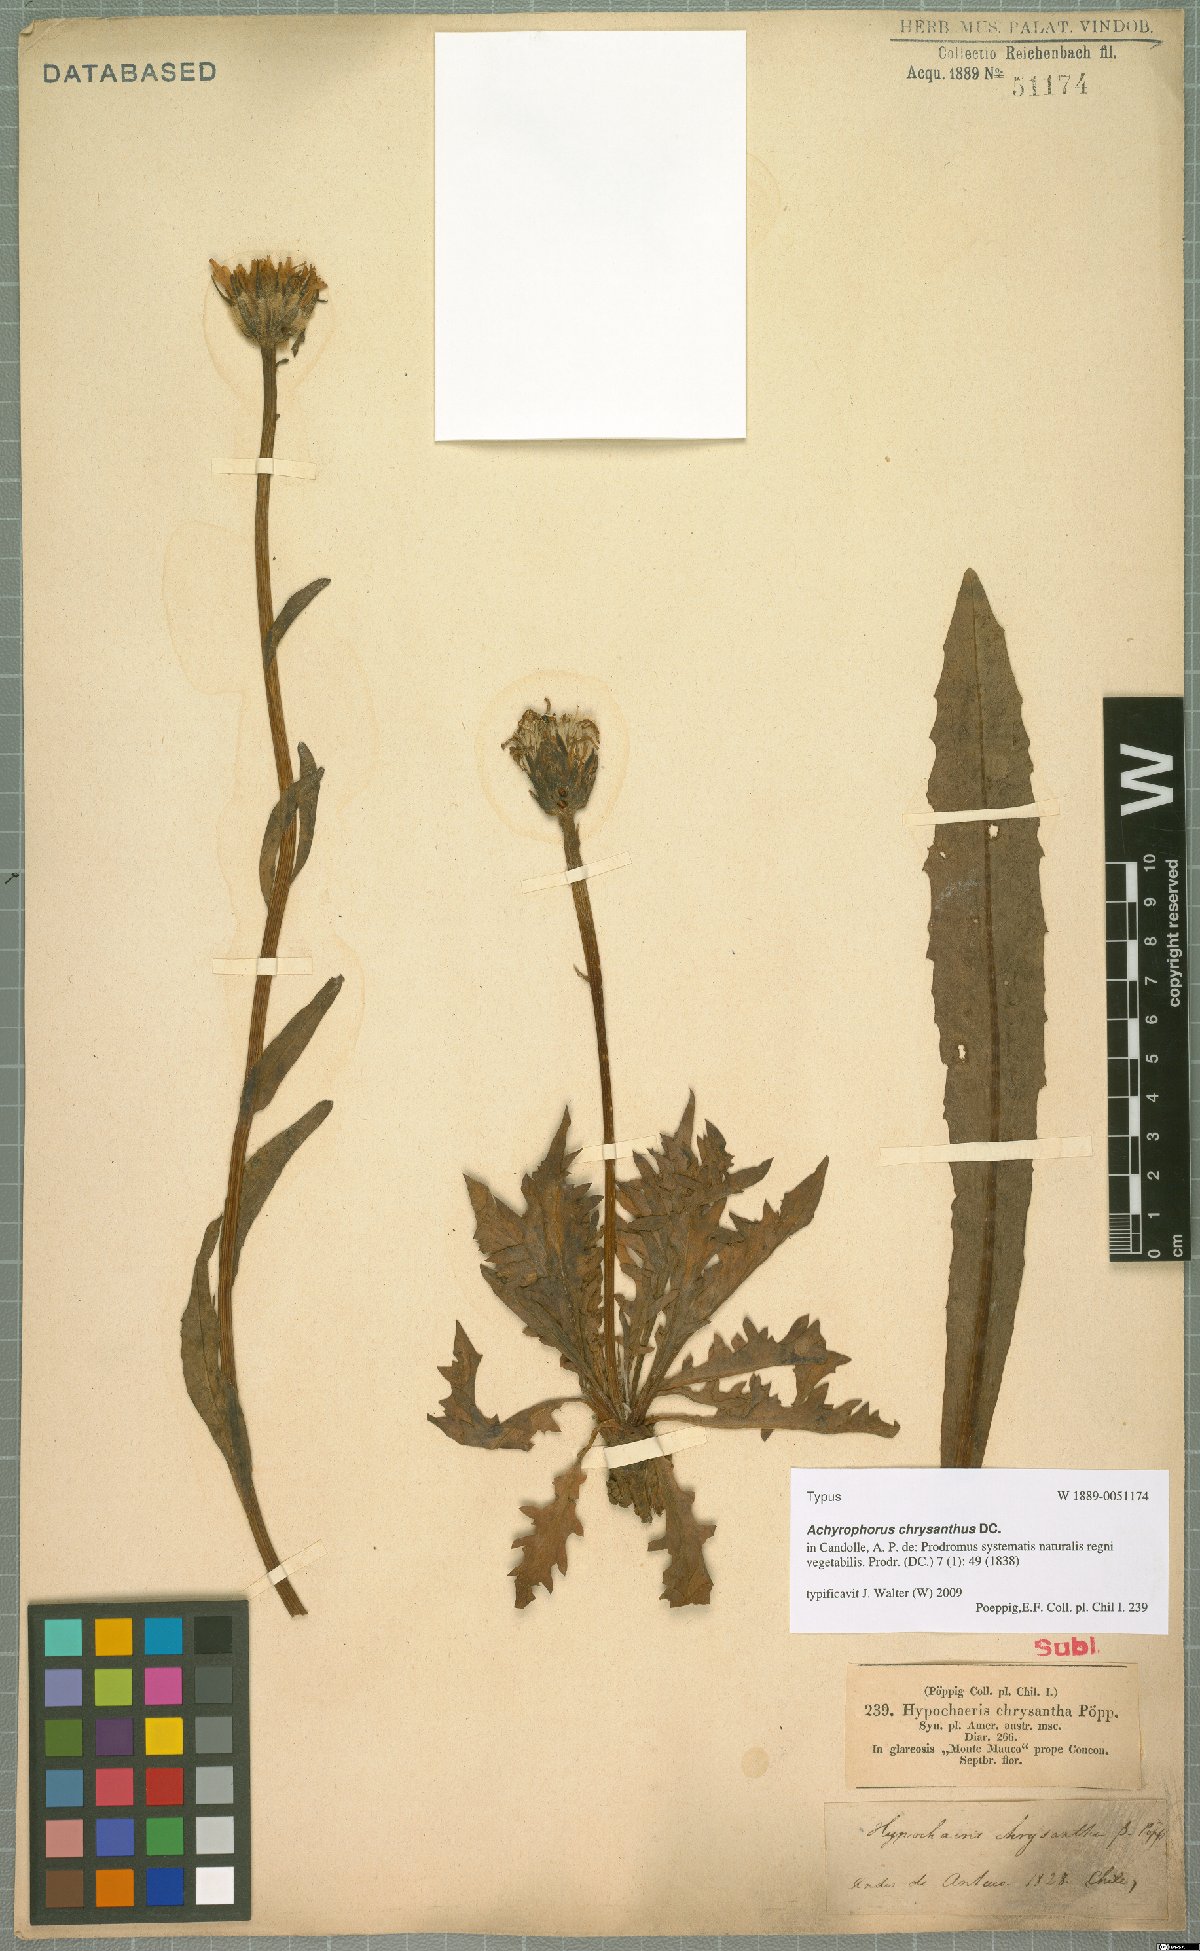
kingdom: Plantae
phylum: Tracheophyta
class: Magnoliopsida
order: Asterales
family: Asteraceae
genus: Hypochaeris
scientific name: Hypochaeris scorzonerae
